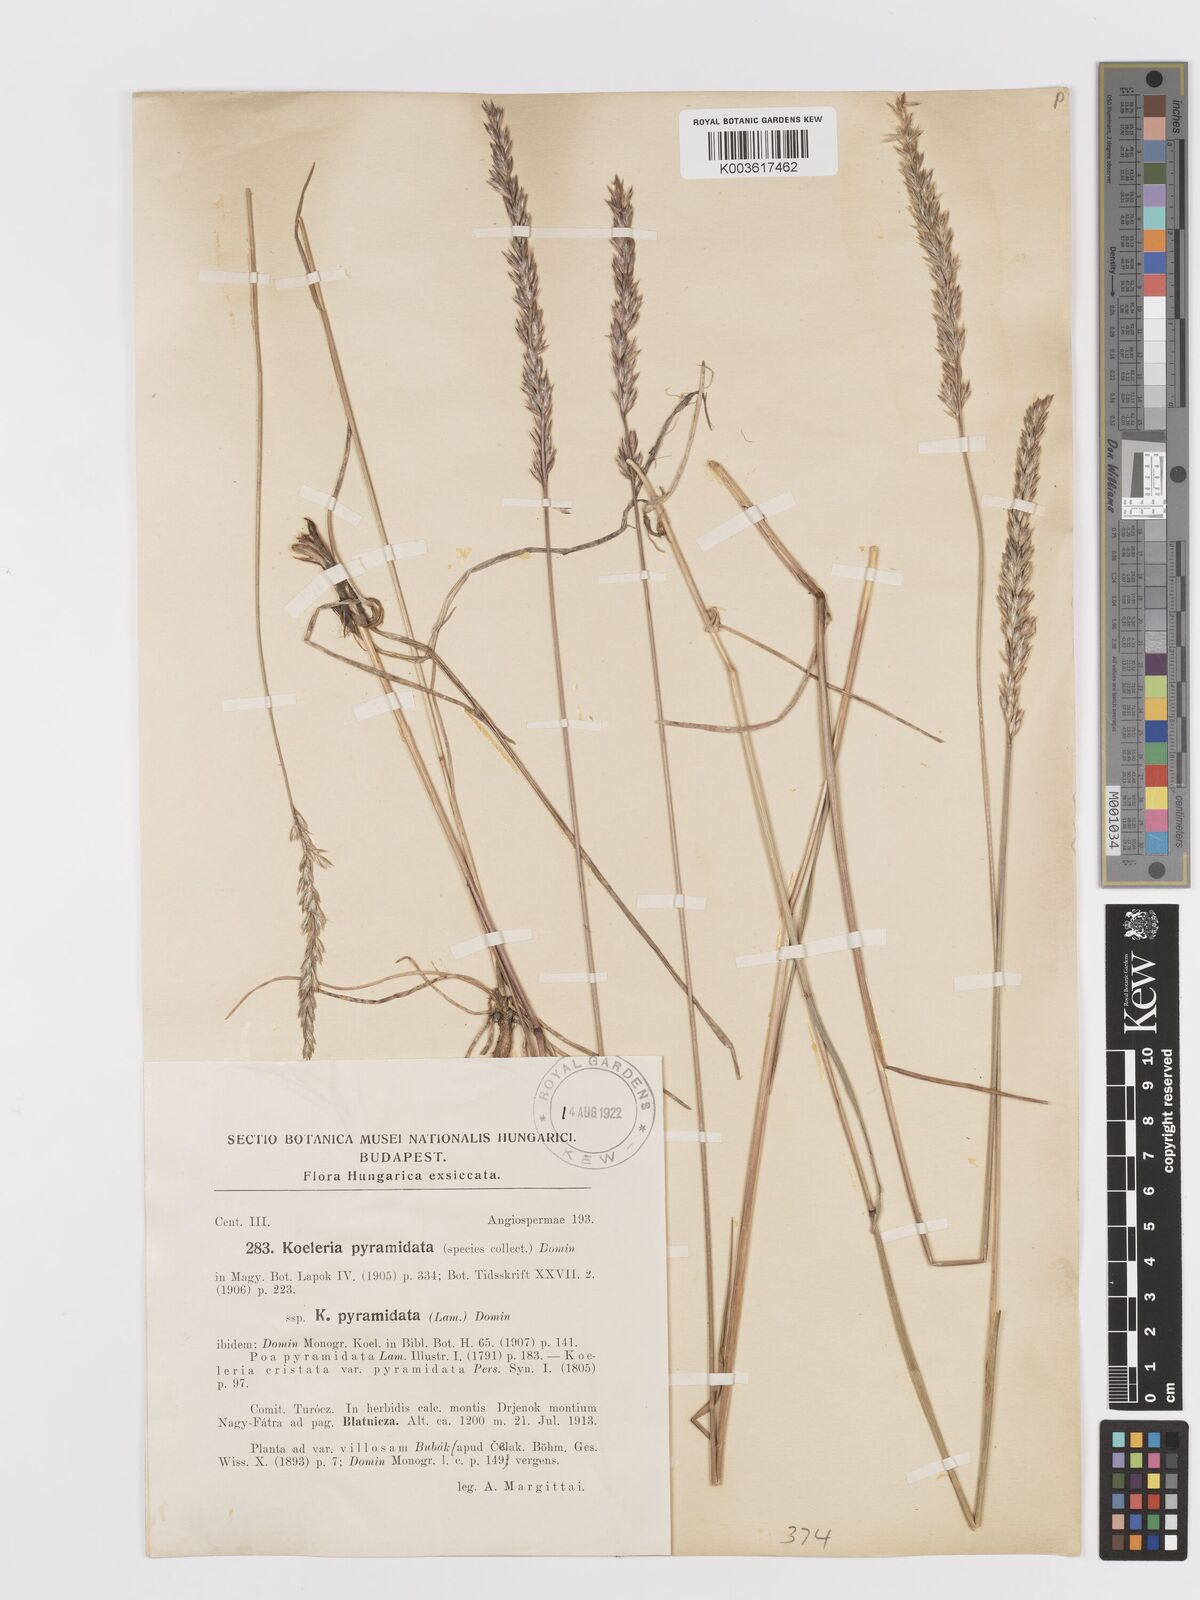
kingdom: Plantae
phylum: Tracheophyta
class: Liliopsida
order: Poales
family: Poaceae
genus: Koeleria
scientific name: Koeleria pyramidata
